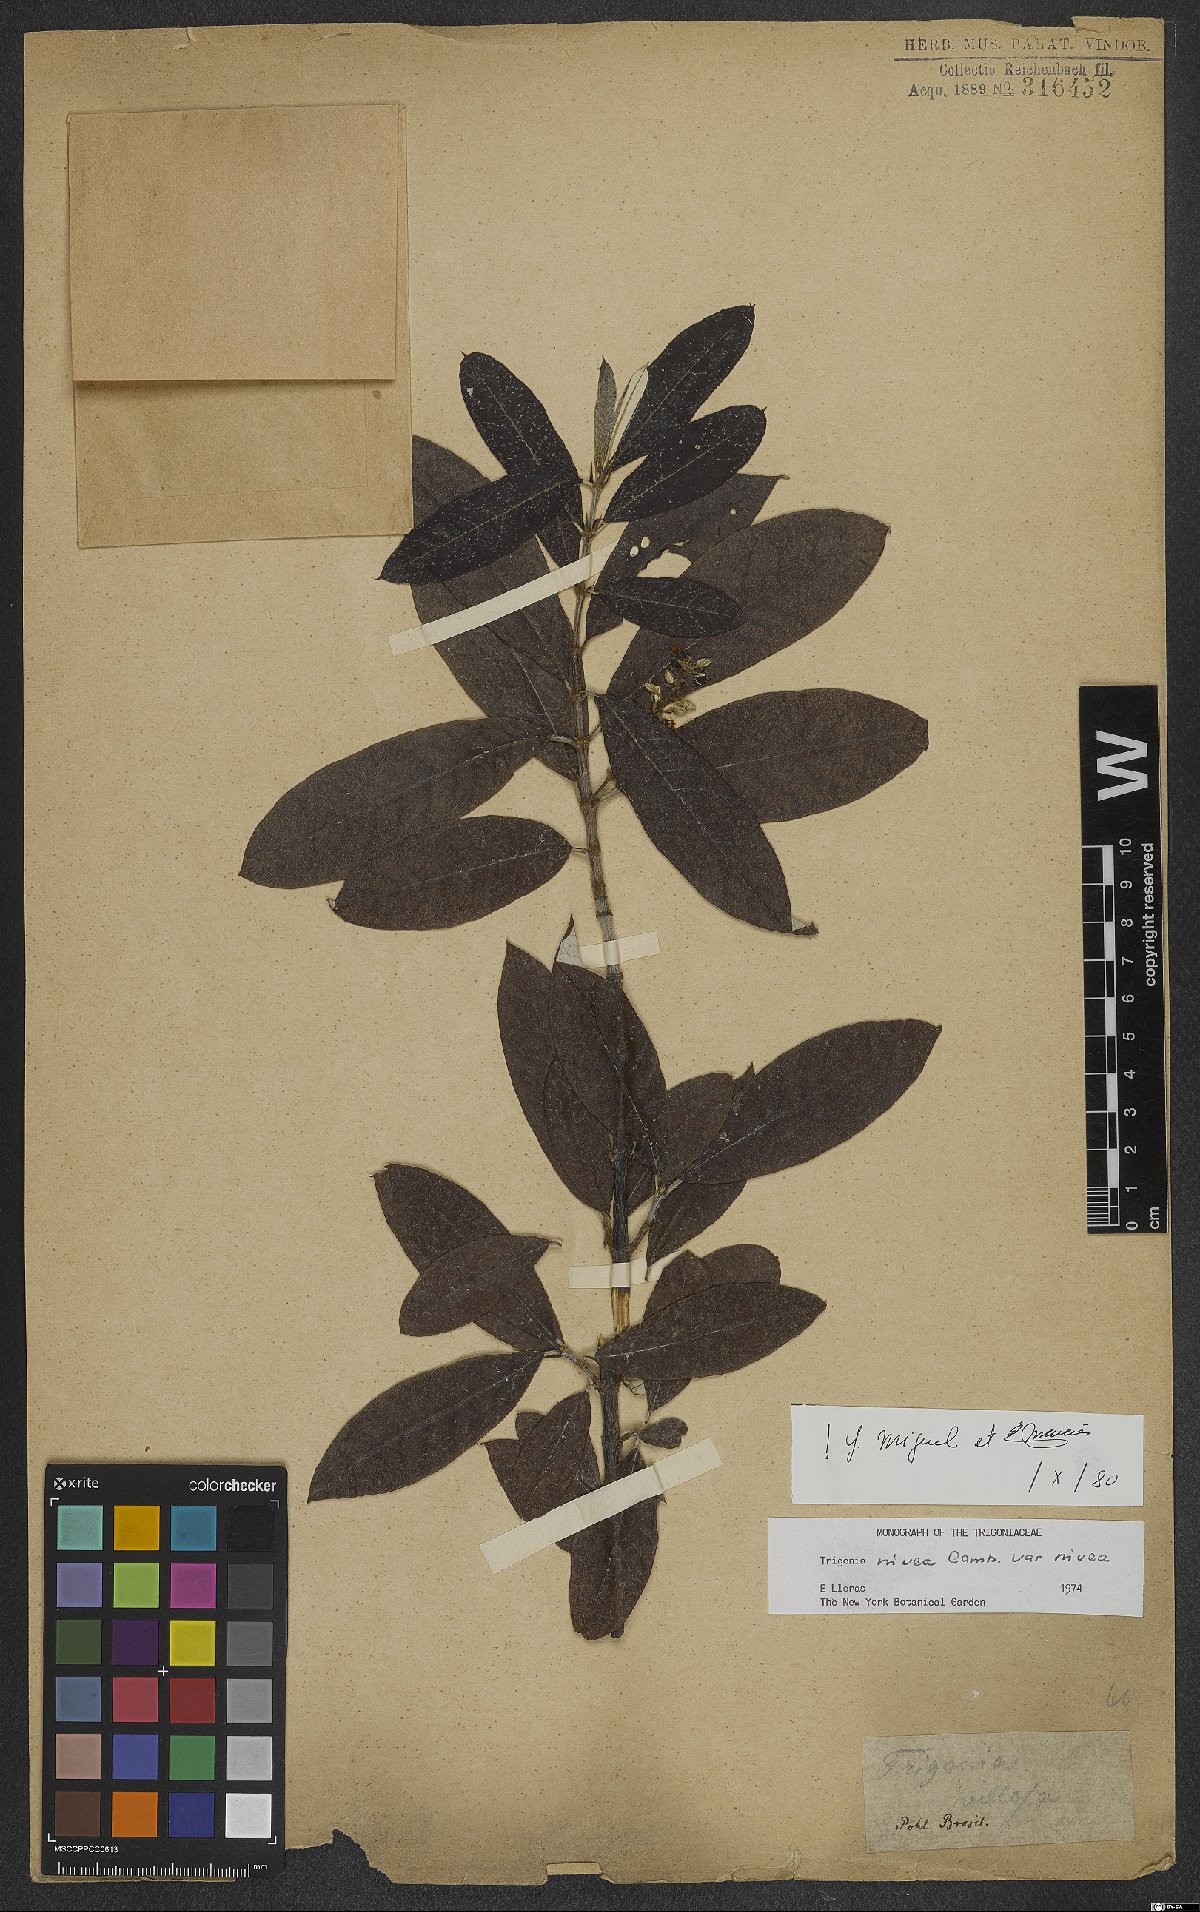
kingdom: Plantae
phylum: Tracheophyta
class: Magnoliopsida
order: Malpighiales
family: Trigoniaceae
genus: Trigonia
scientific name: Trigonia nivea
